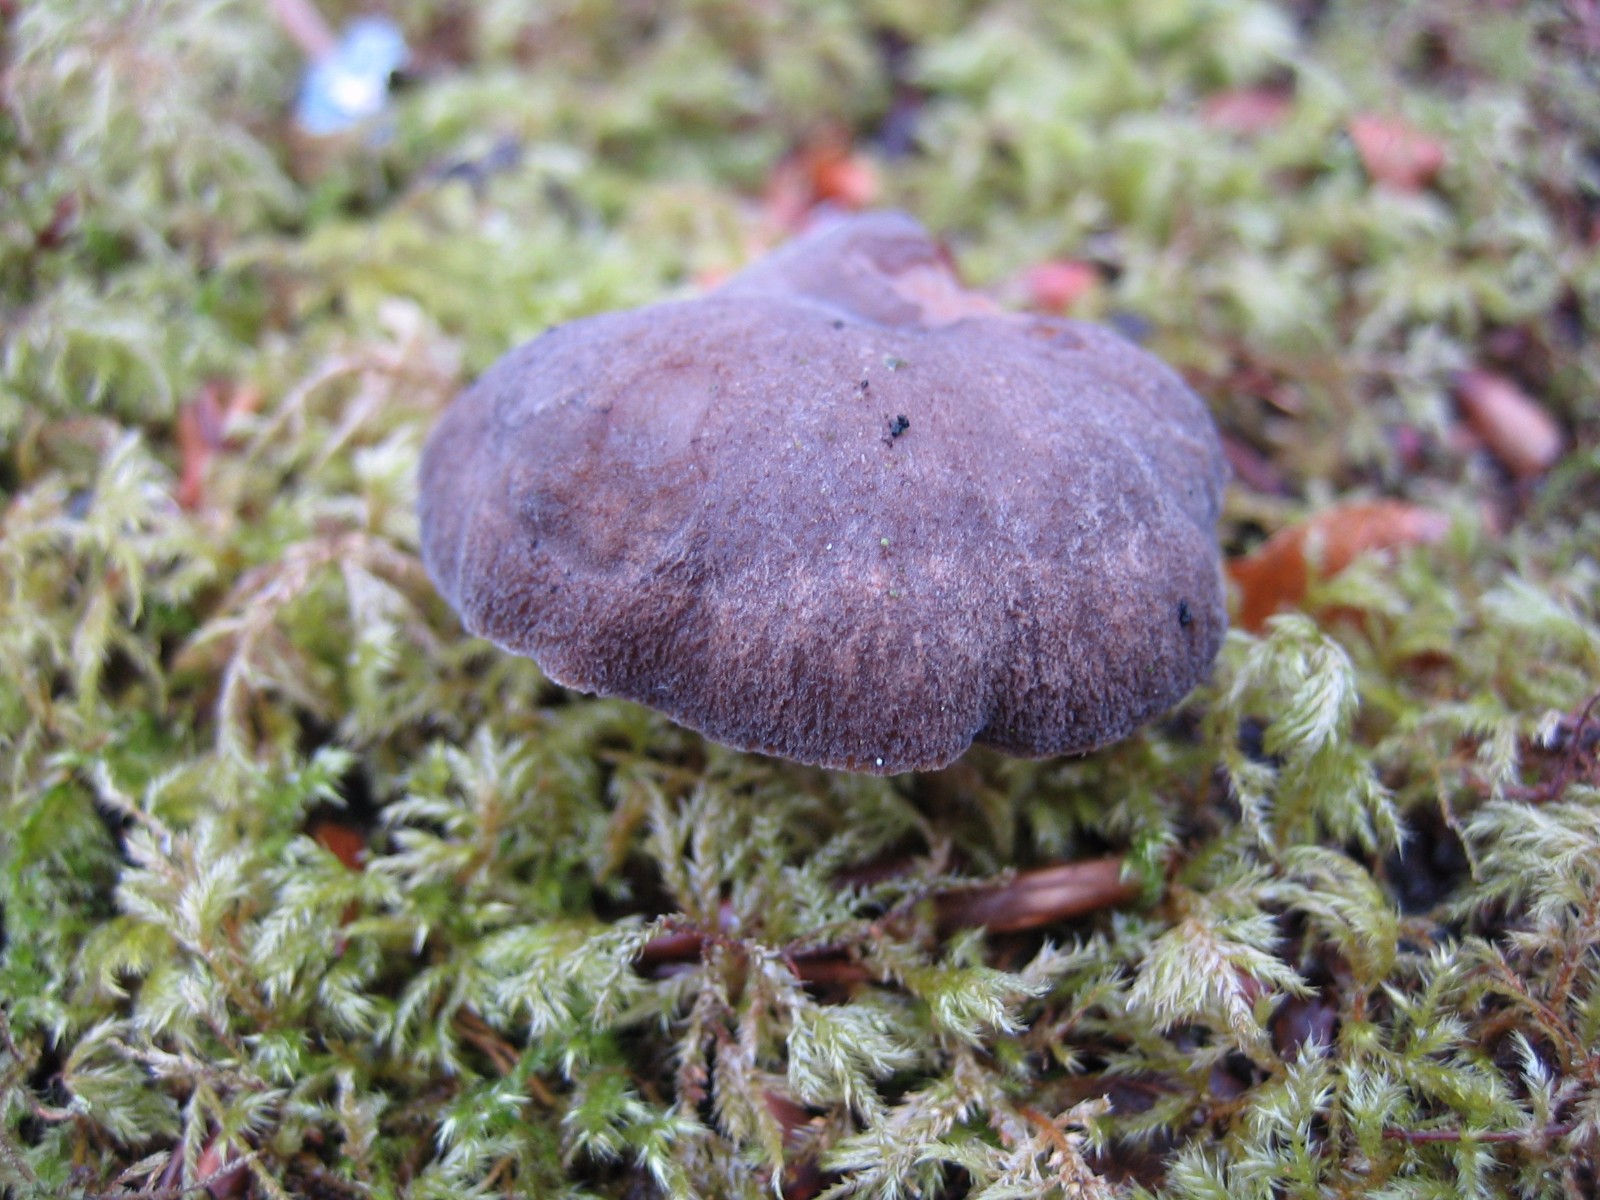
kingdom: Fungi
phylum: Basidiomycota
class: Agaricomycetes
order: Polyporales
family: Polyporaceae
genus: Lentinus
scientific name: Lentinus brumalis
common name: vinter-stilkporesvamp
